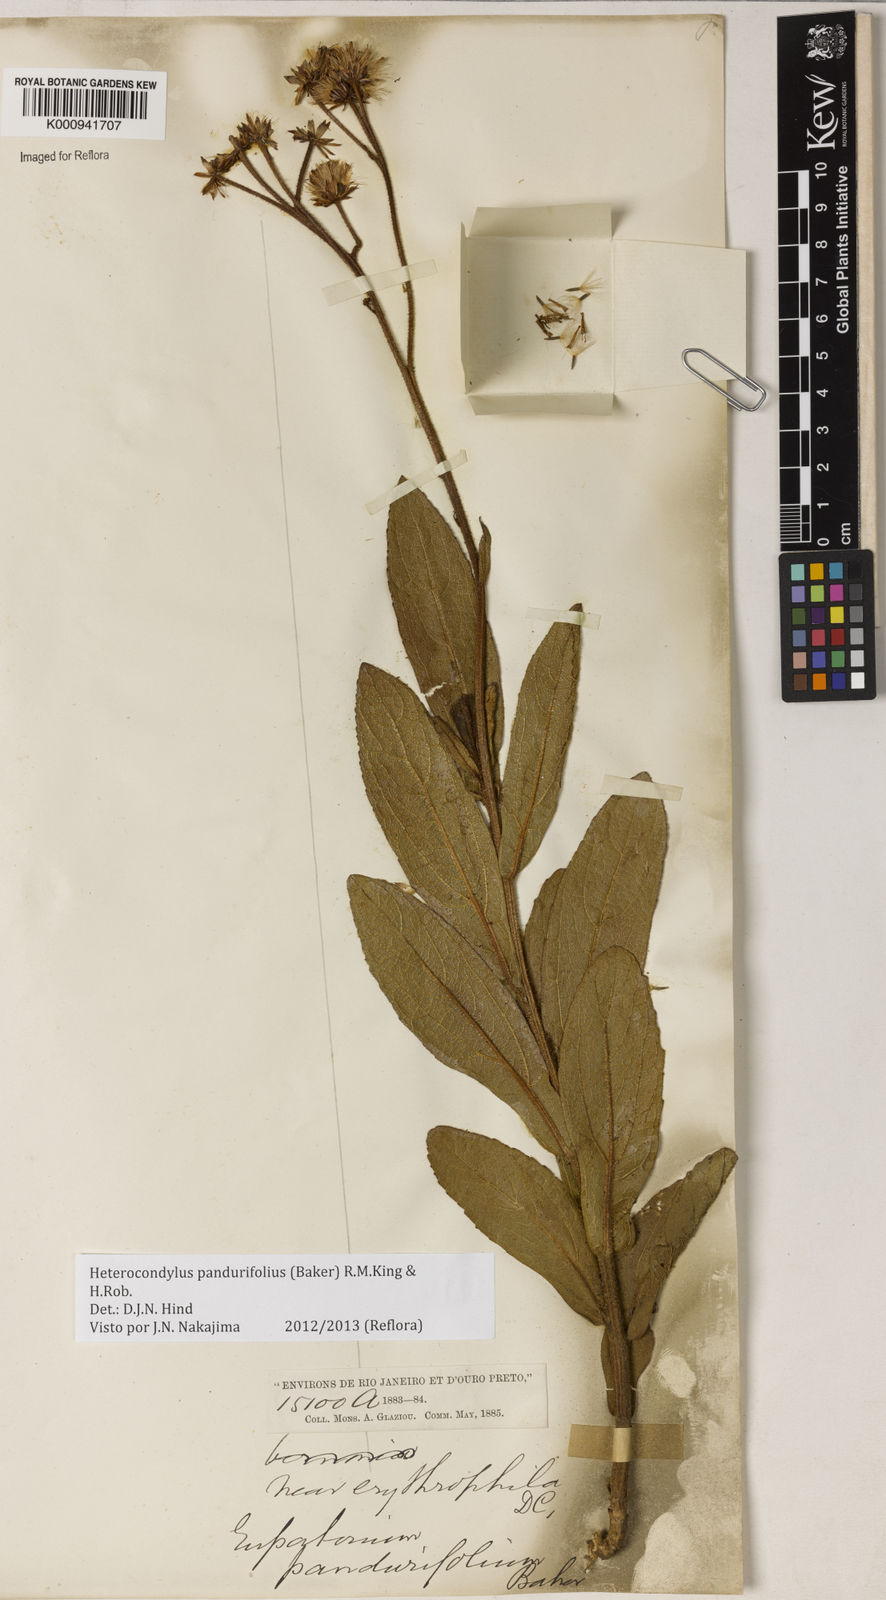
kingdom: Plantae
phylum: Tracheophyta
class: Magnoliopsida
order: Asterales
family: Asteraceae
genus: Heterocondylus
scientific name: Heterocondylus amphidictyus
